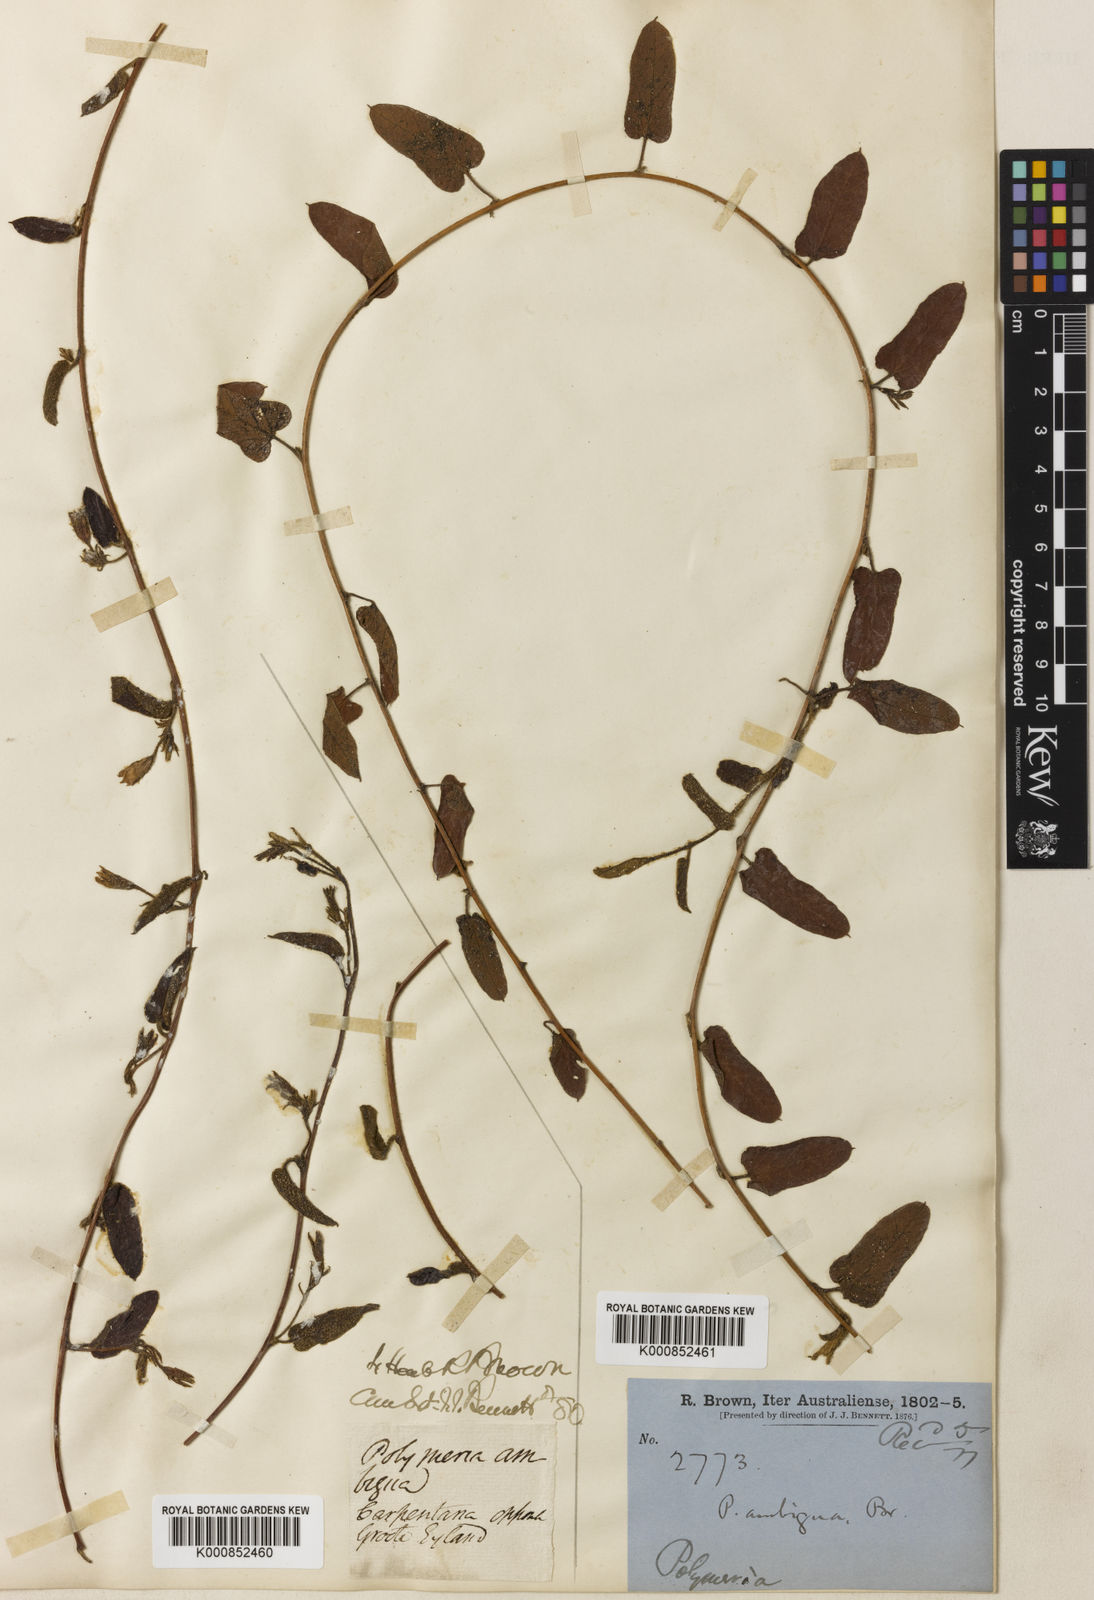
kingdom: Plantae
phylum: Tracheophyta
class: Magnoliopsida
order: Solanales
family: Convolvulaceae
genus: Polymeria
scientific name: Polymeria ambigua
